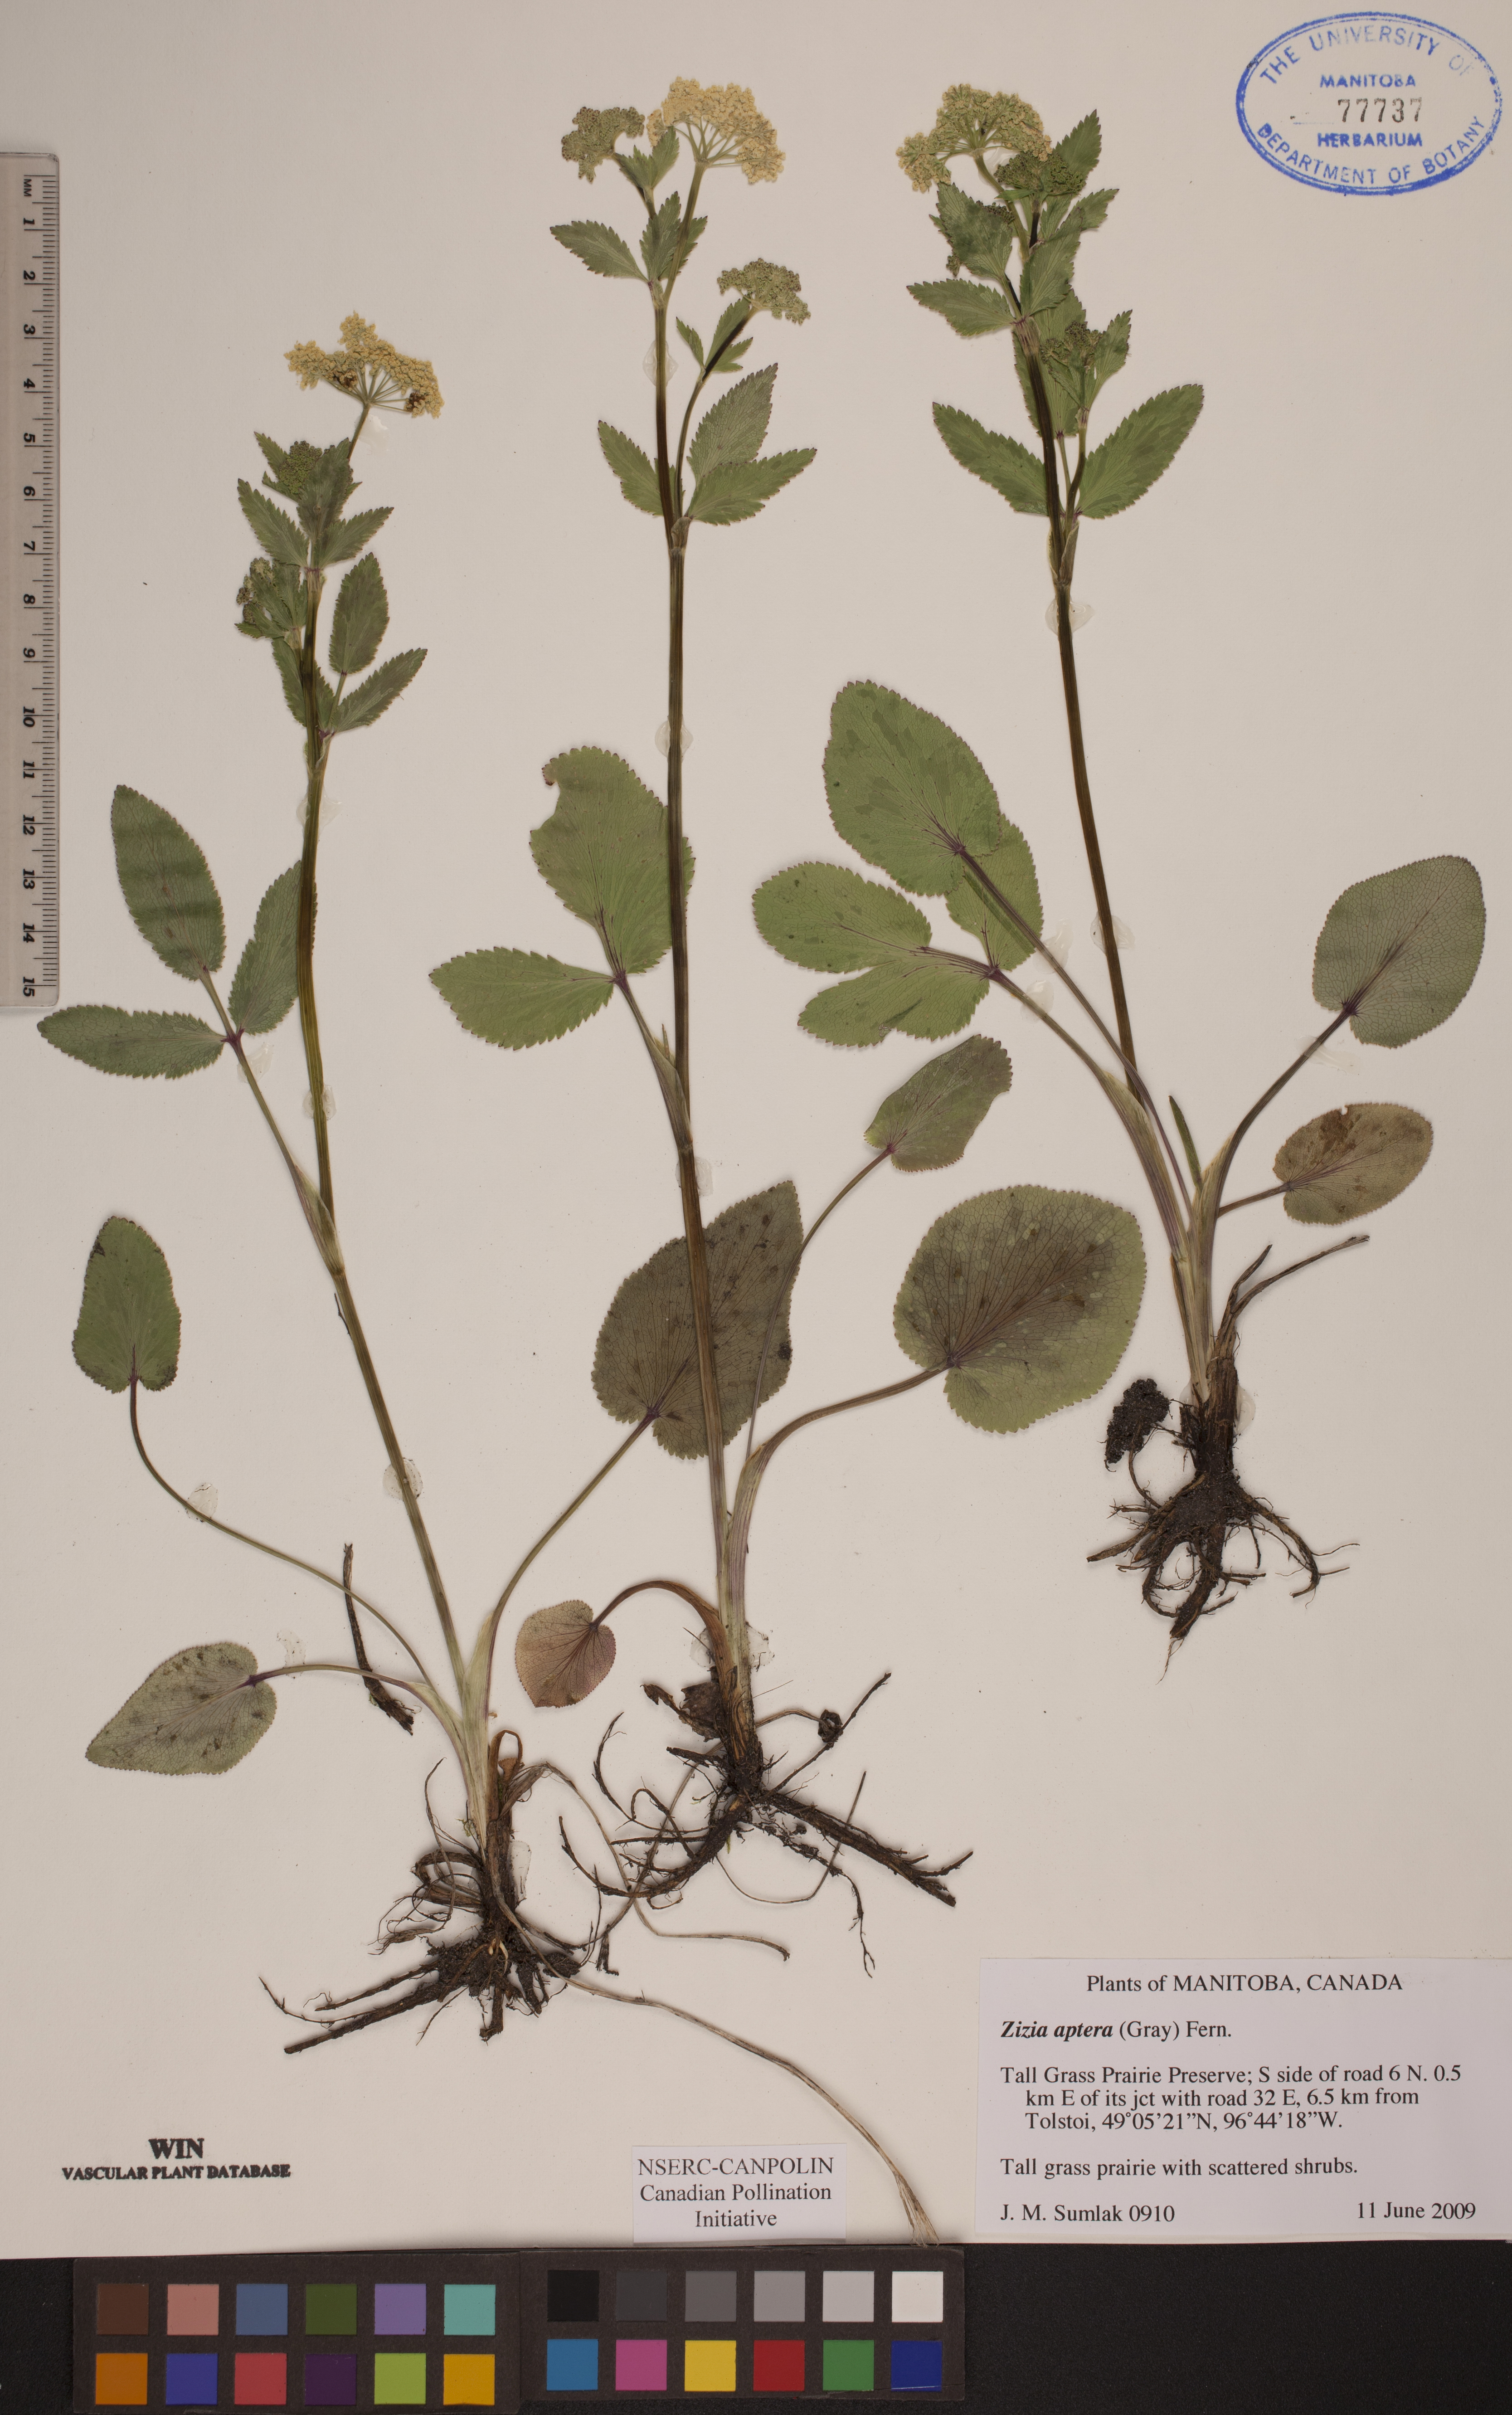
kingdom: Plantae
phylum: Tracheophyta
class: Magnoliopsida
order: Apiales
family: Apiaceae
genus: Zizia
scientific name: Zizia aptera
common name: Heart-leaved alexanders
